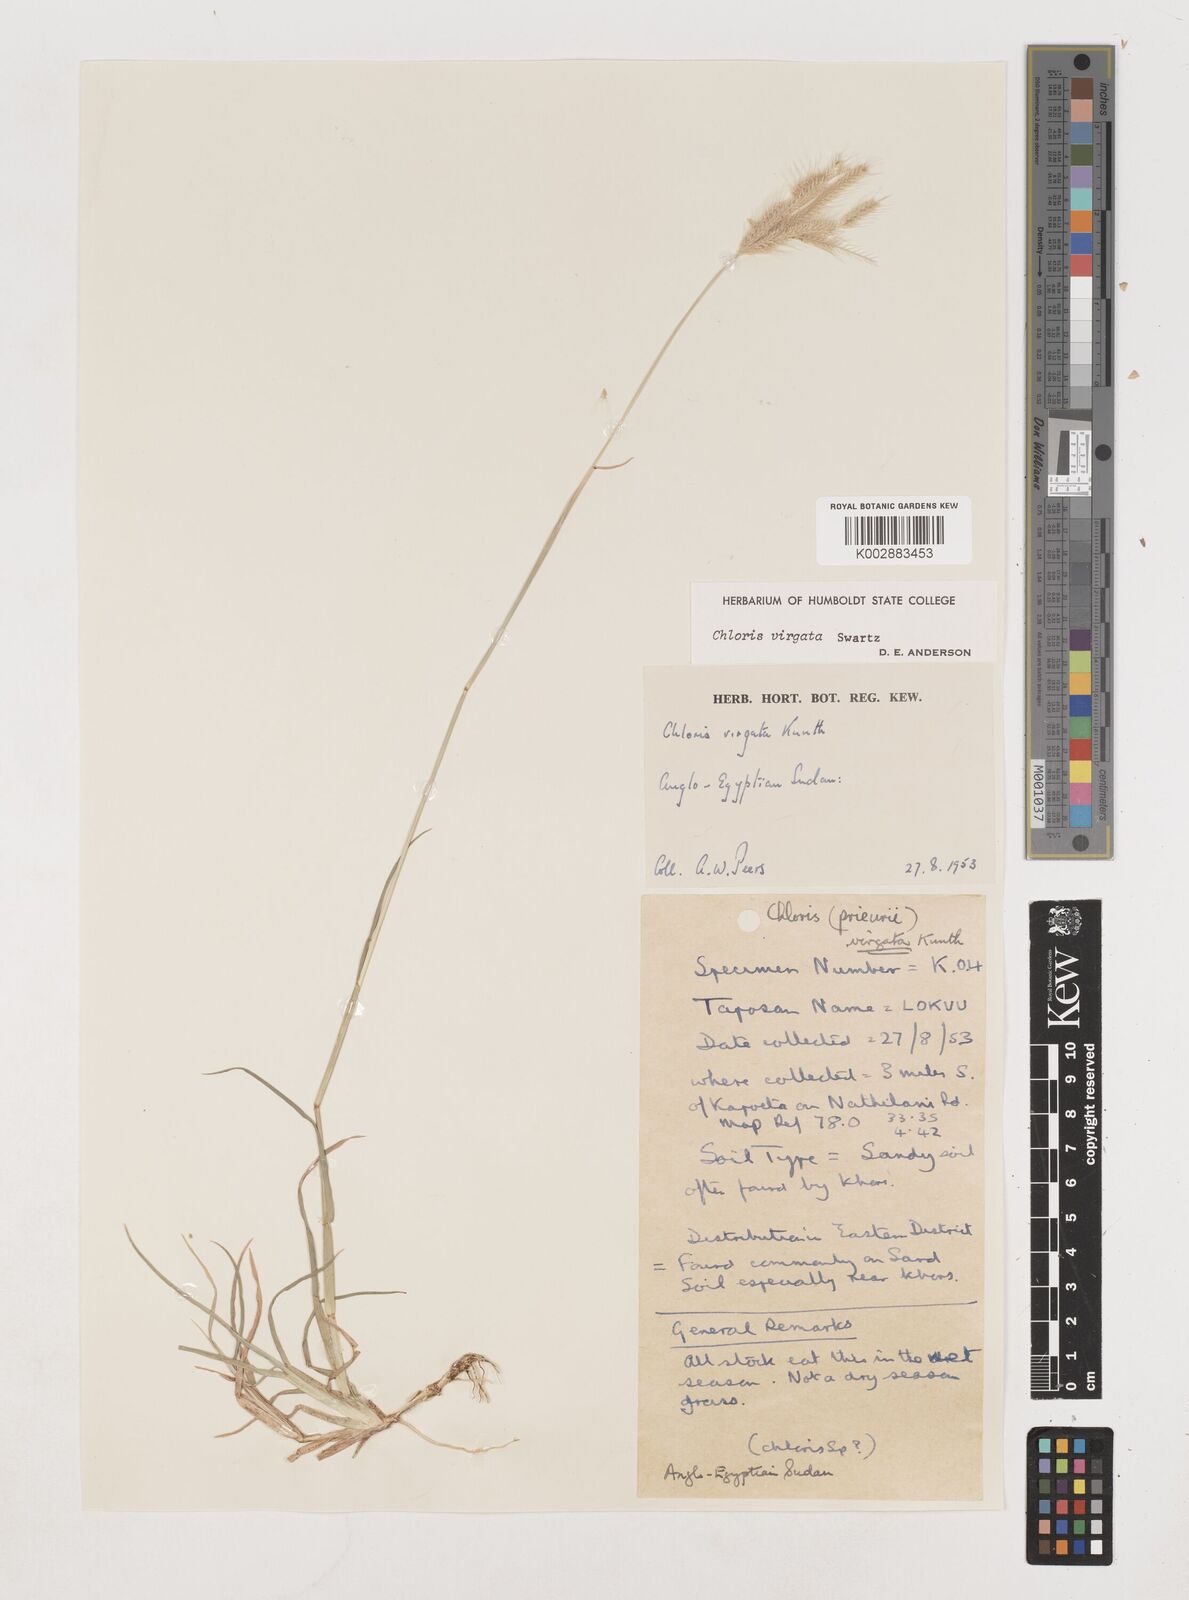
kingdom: Plantae
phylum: Tracheophyta
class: Liliopsida
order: Poales
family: Poaceae
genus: Chloris
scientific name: Chloris virgata
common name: Feathery rhodes-grass
